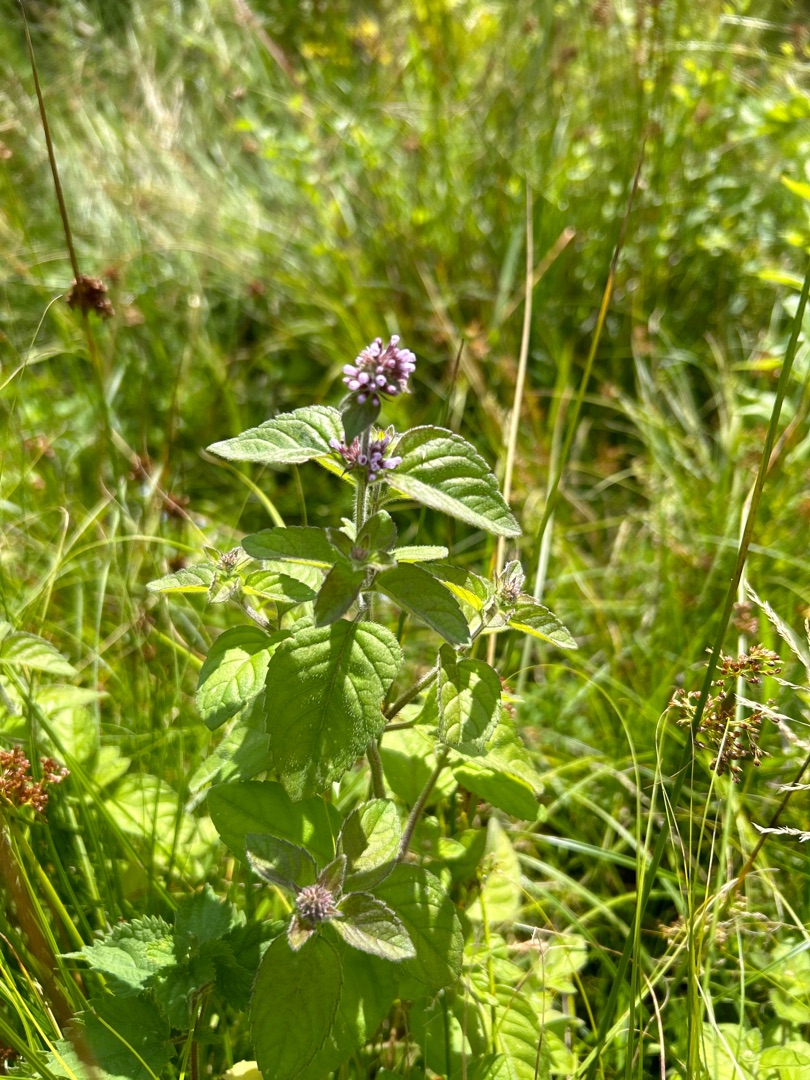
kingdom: Plantae
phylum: Tracheophyta
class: Magnoliopsida
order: Lamiales
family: Lamiaceae
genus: Mentha
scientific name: Mentha aquatica
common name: Vand-mynte
